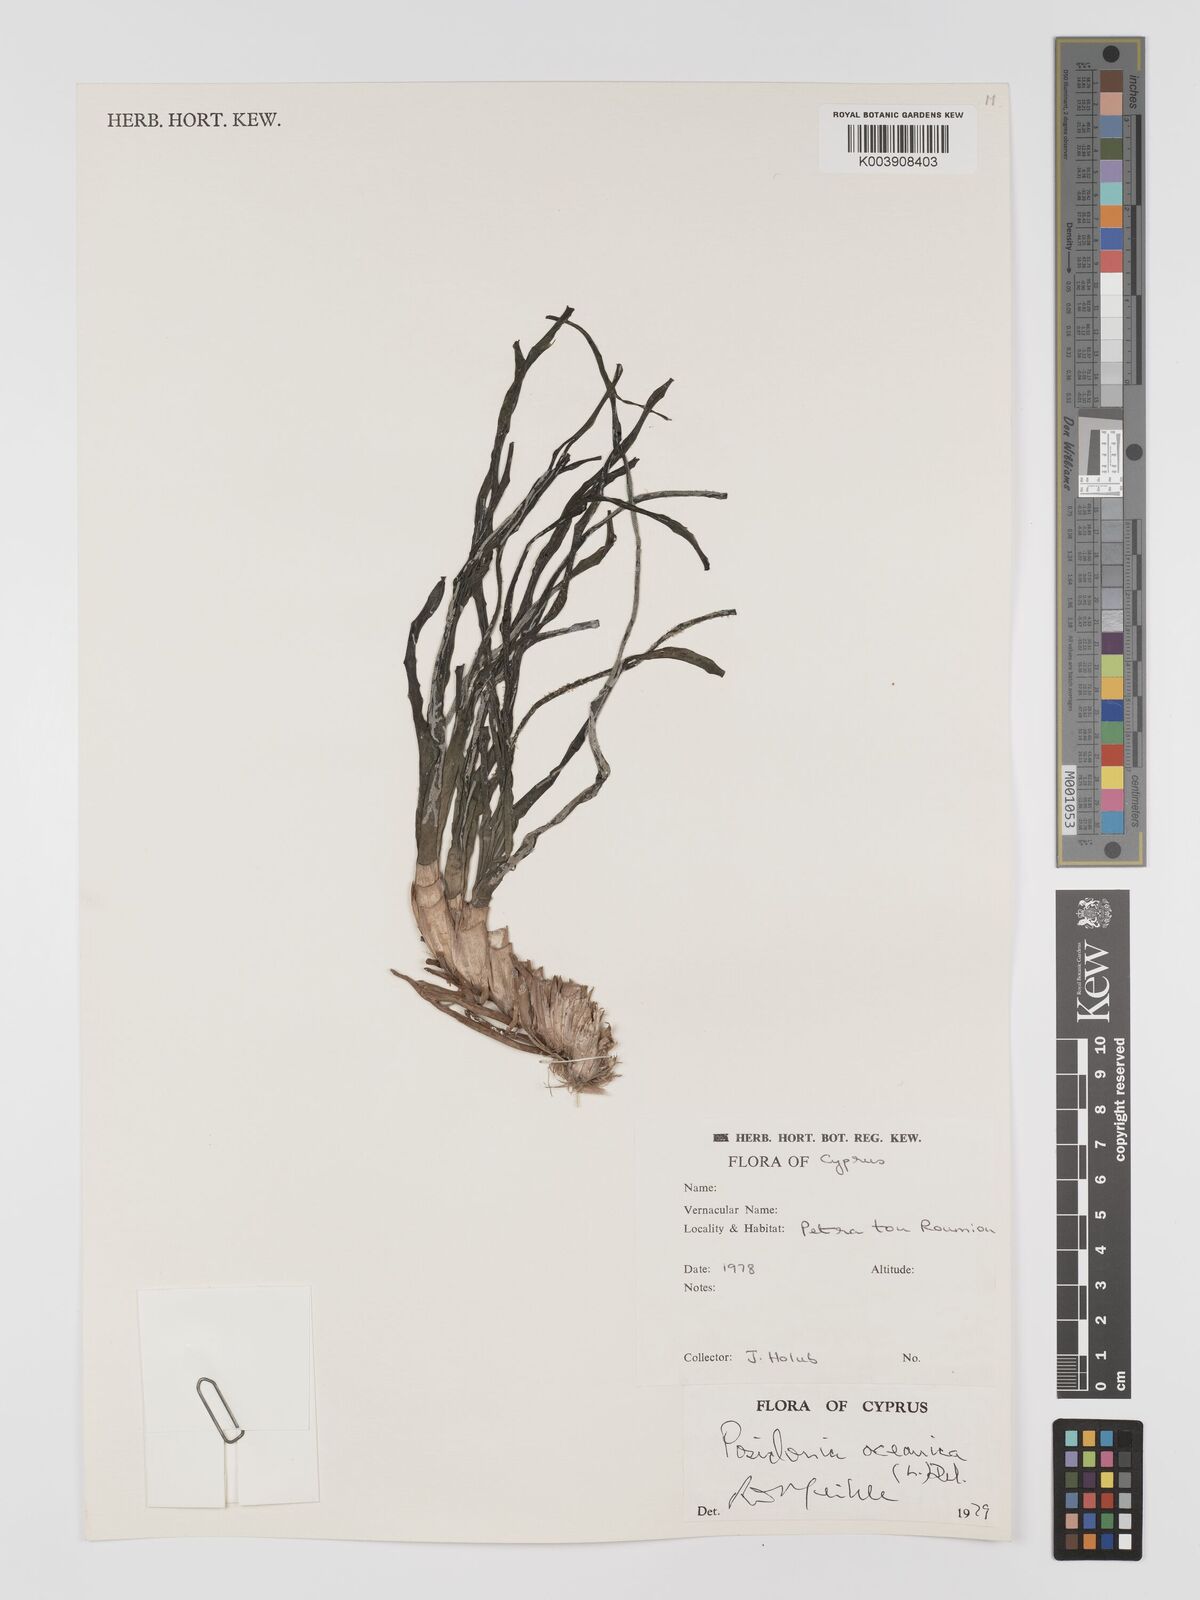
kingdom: Plantae
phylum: Tracheophyta
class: Liliopsida
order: Alismatales
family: Posidoniaceae
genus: Posidonia
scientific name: Posidonia oceanica
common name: Mediterranean tapeweed
